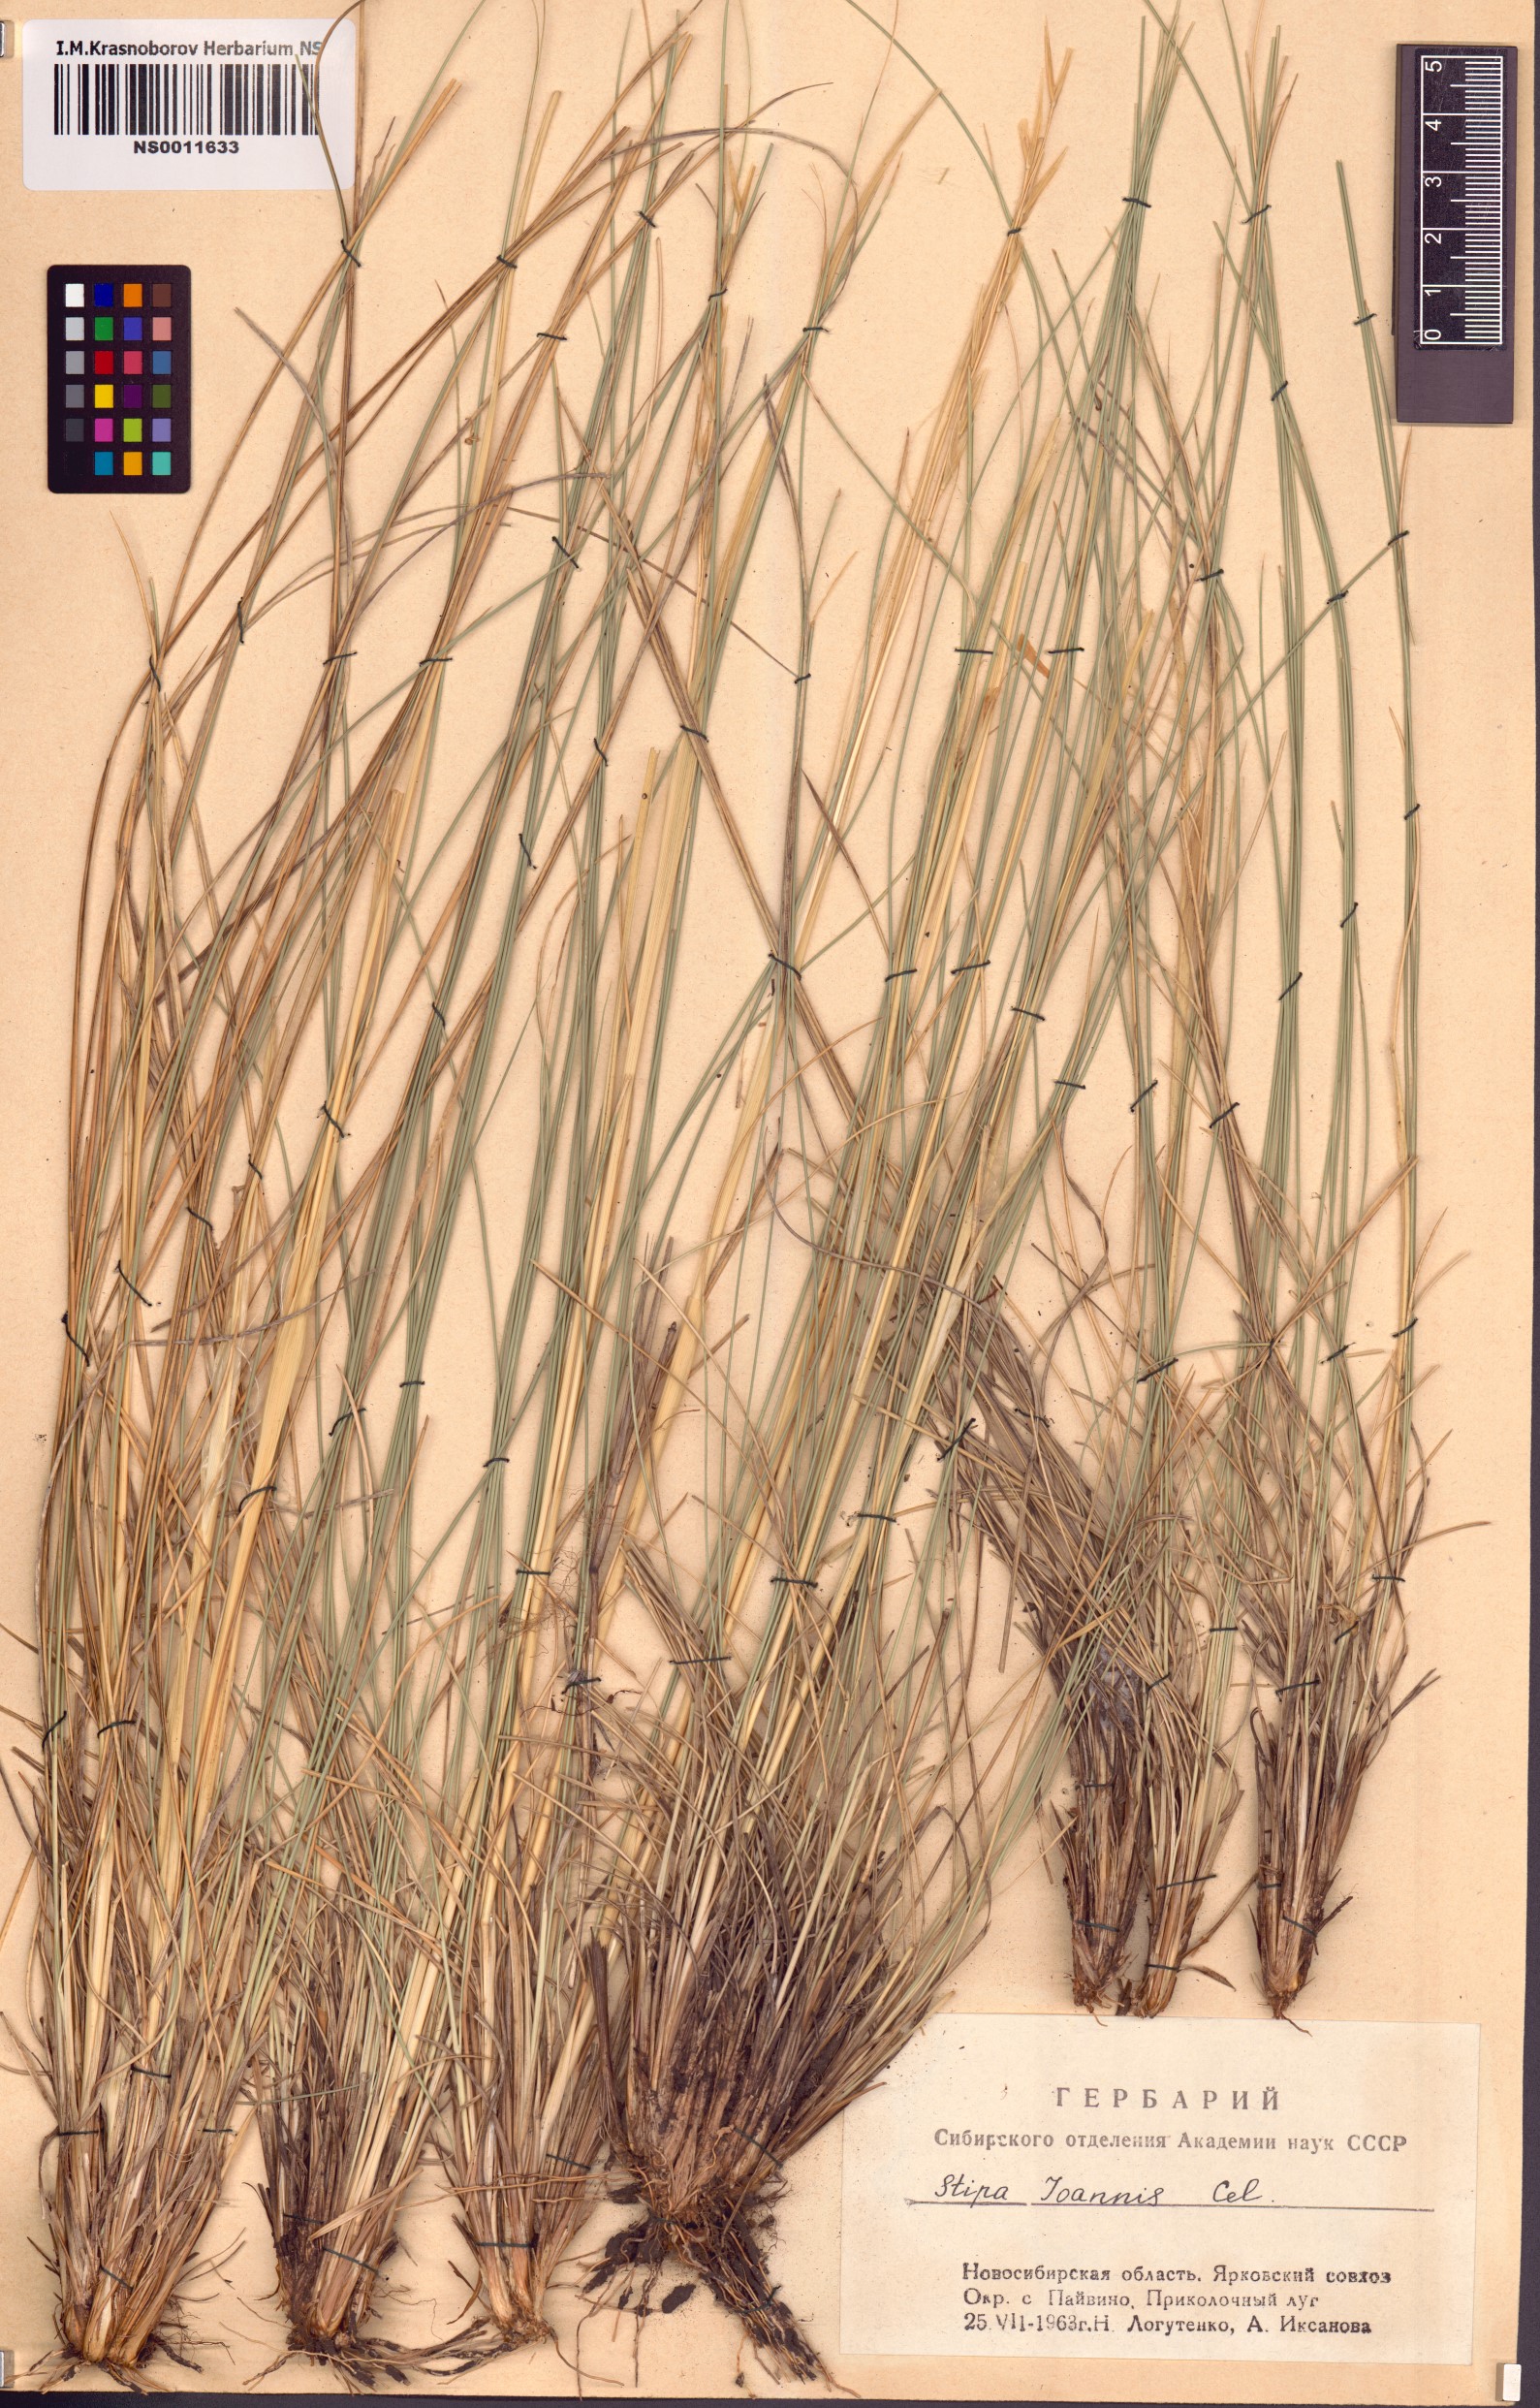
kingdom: Plantae
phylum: Tracheophyta
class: Liliopsida
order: Poales
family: Poaceae
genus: Stipa
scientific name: Stipa pennata
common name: European feather grass
